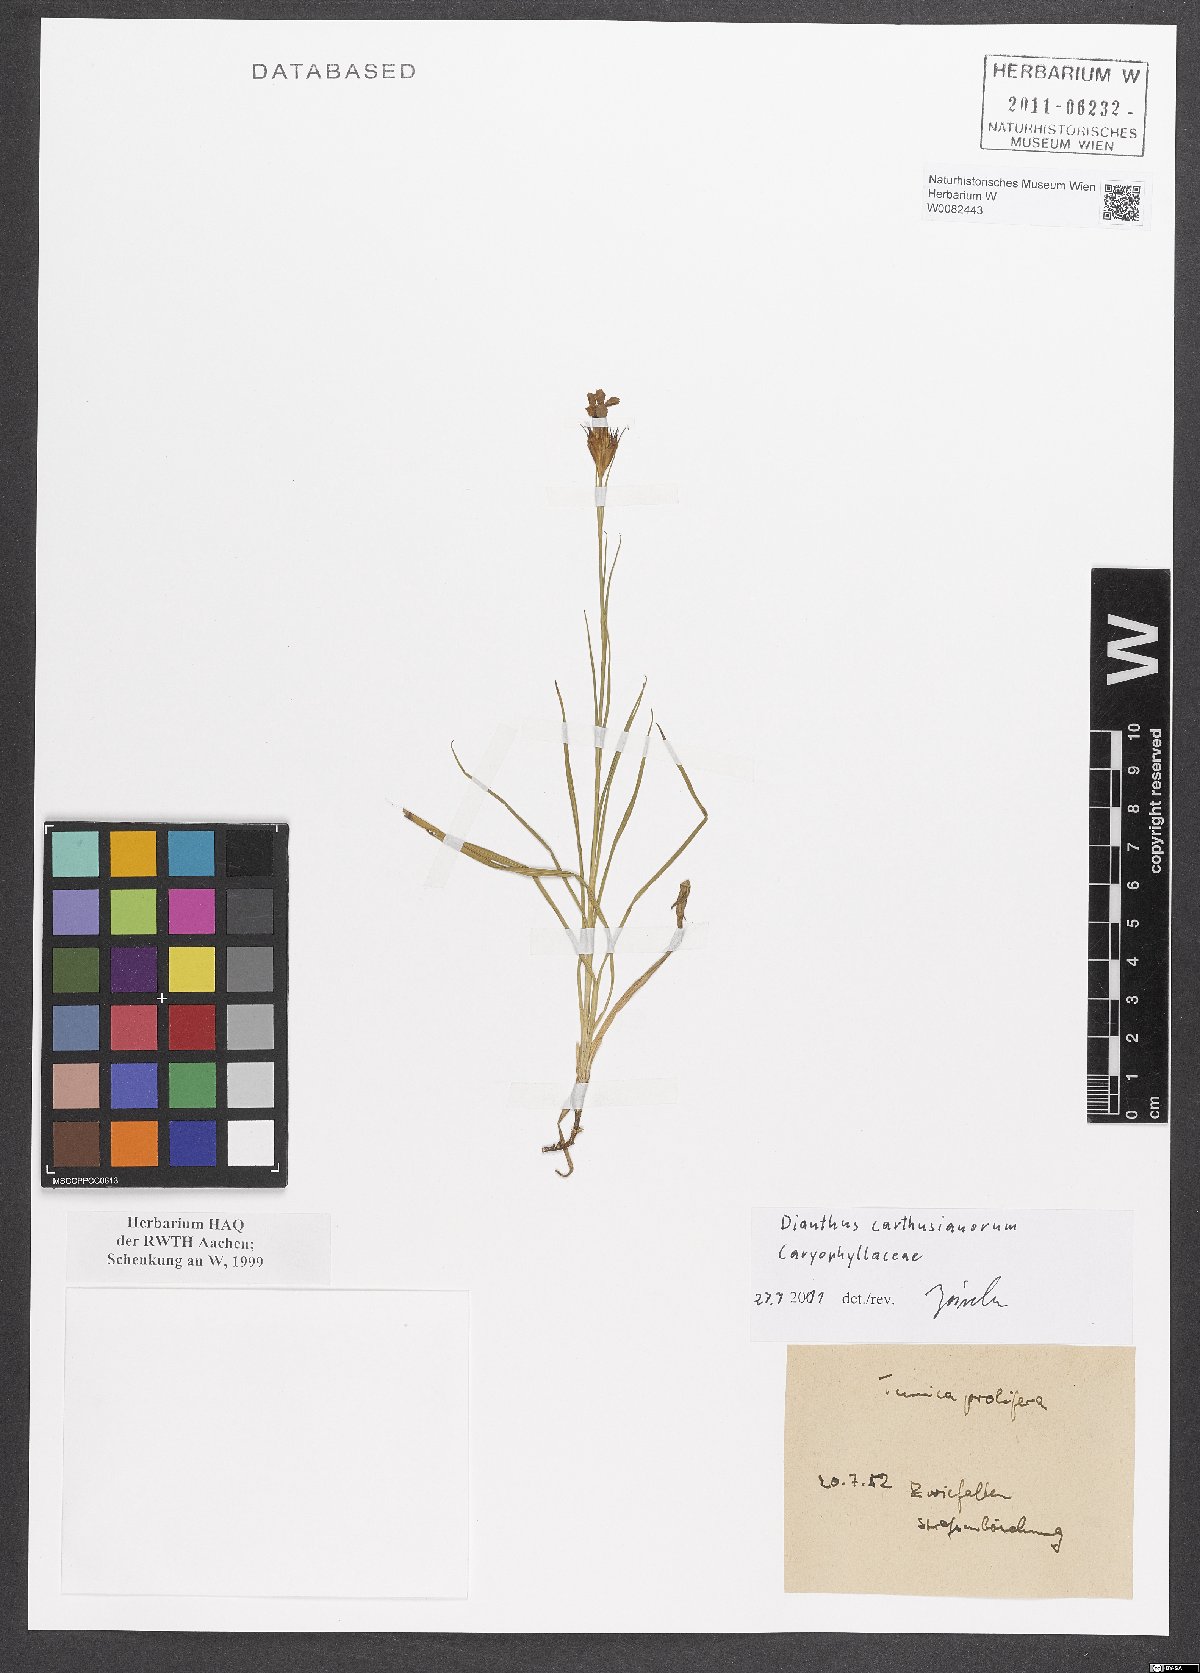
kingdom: Plantae
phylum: Tracheophyta
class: Magnoliopsida
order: Caryophyllales
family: Caryophyllaceae
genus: Dianthus
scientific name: Dianthus carthusianorum
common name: Carthusian pink
